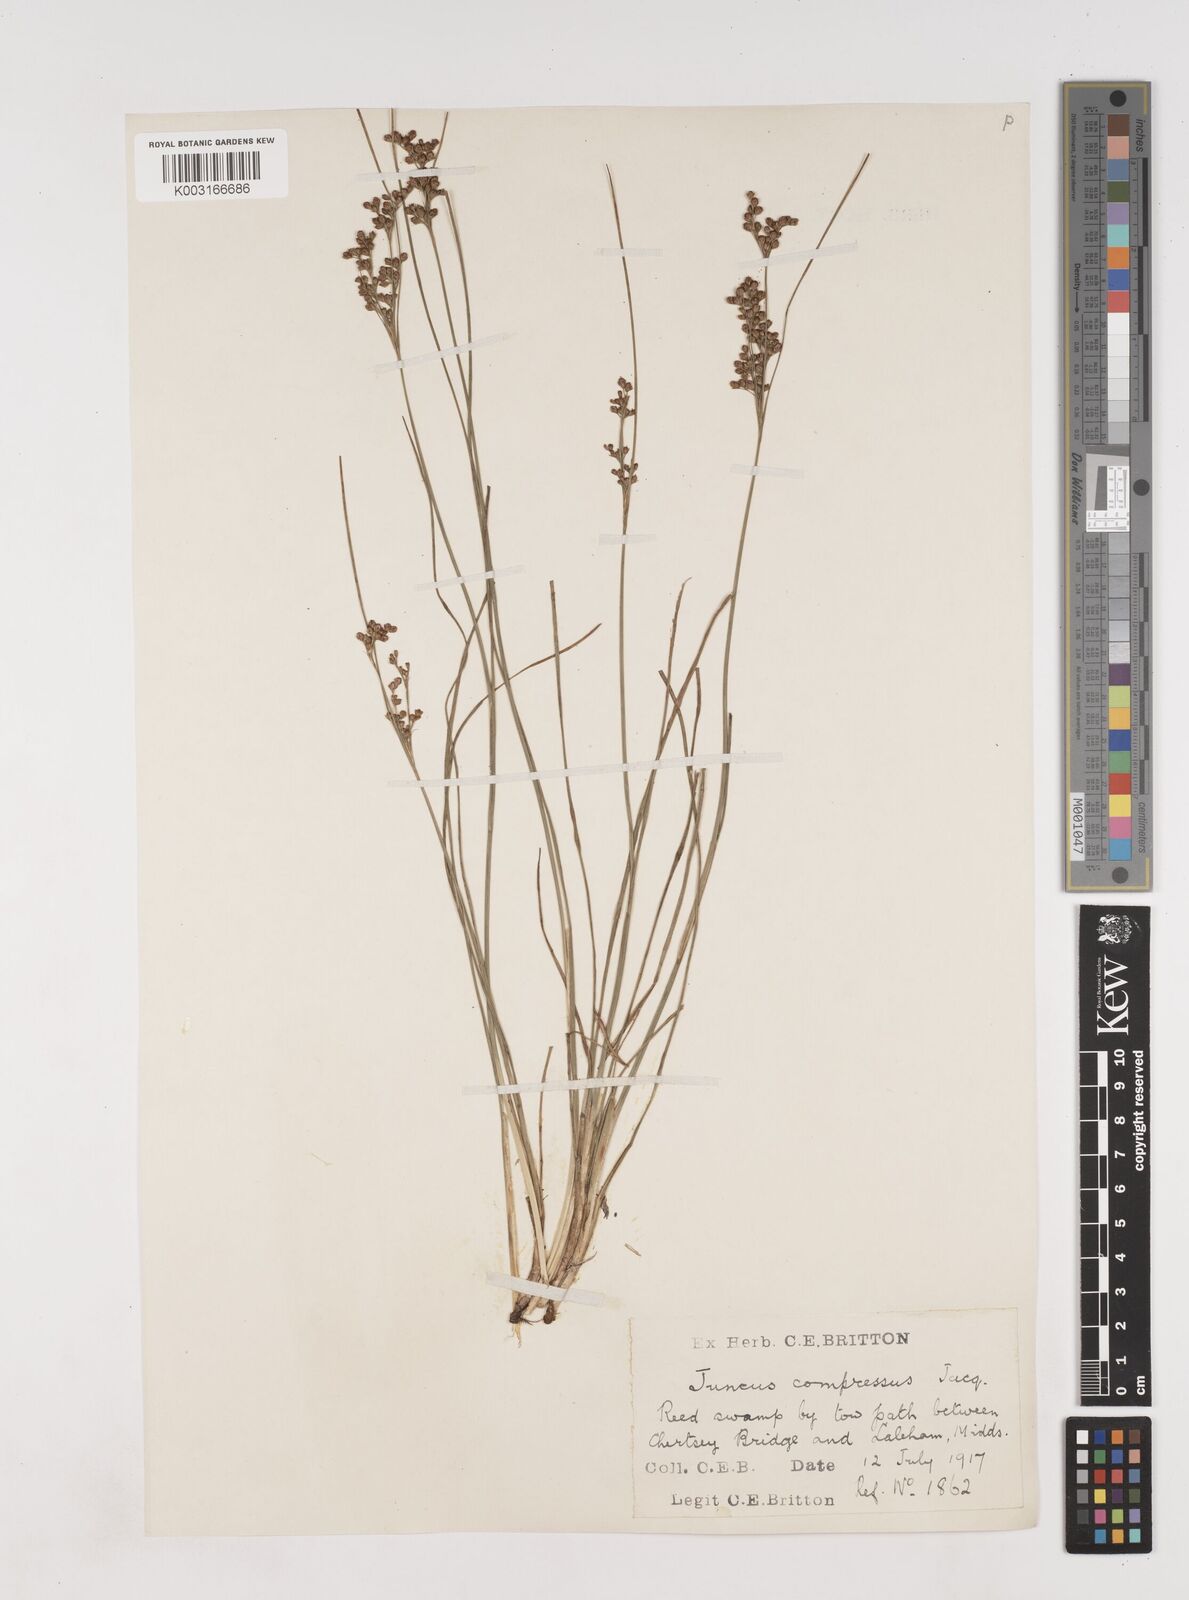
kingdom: Plantae
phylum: Tracheophyta
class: Liliopsida
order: Poales
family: Juncaceae
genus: Juncus
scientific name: Juncus compressus
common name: Round-fruited rush
